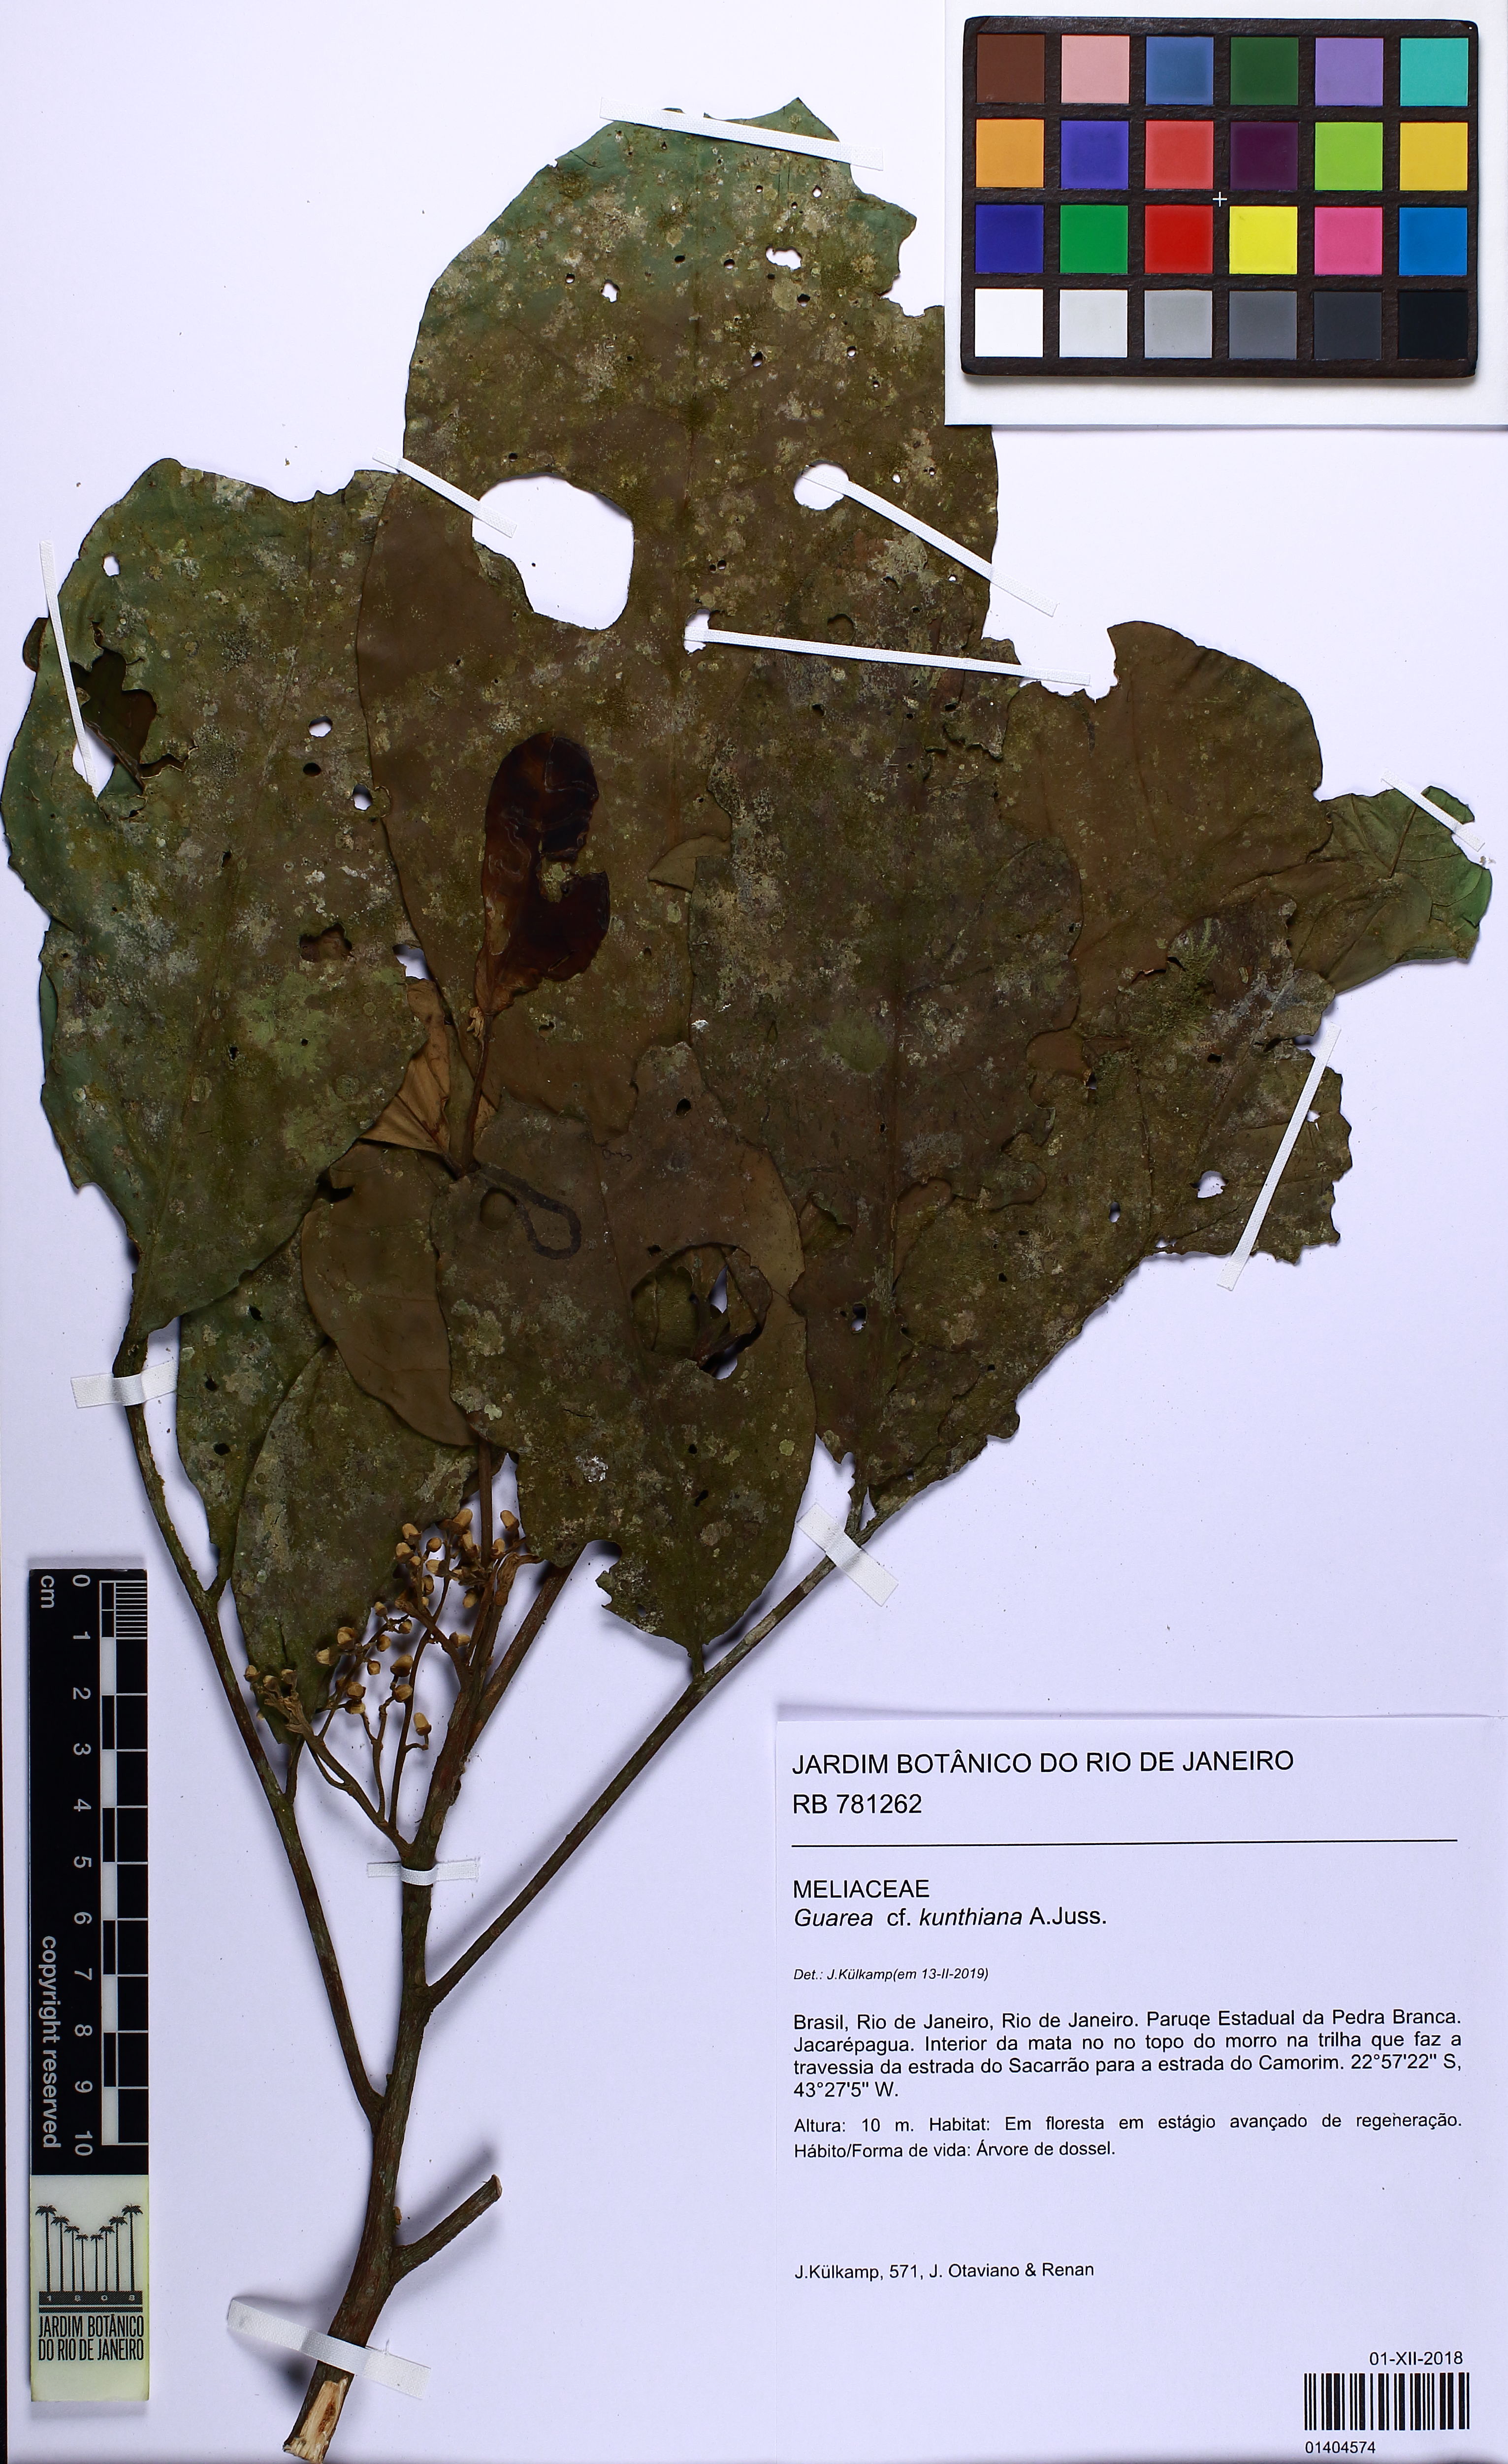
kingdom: Plantae
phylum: Tracheophyta
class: Magnoliopsida
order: Sapindales
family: Meliaceae
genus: Guarea
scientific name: Guarea kunthiana
